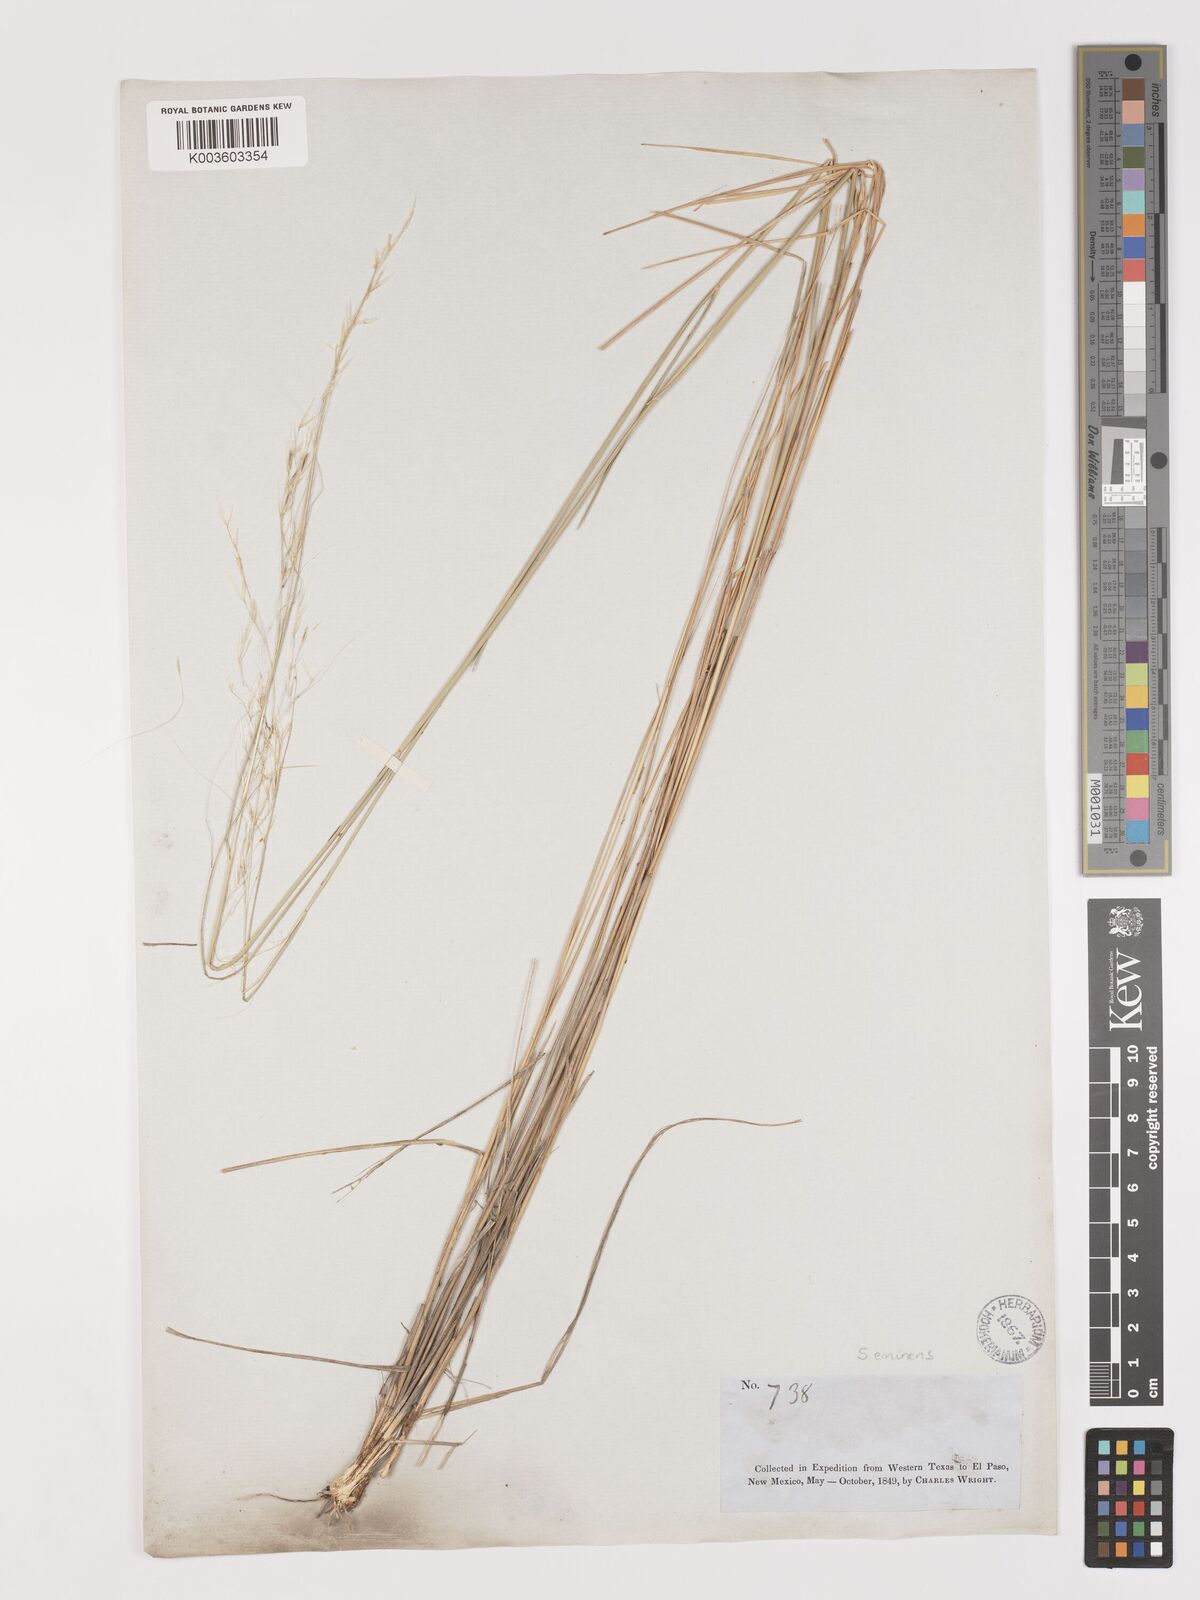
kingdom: Plantae
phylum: Tracheophyta
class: Liliopsida
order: Poales
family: Poaceae
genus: Nassella
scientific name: Nassella neesiana
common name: American needle-grass
